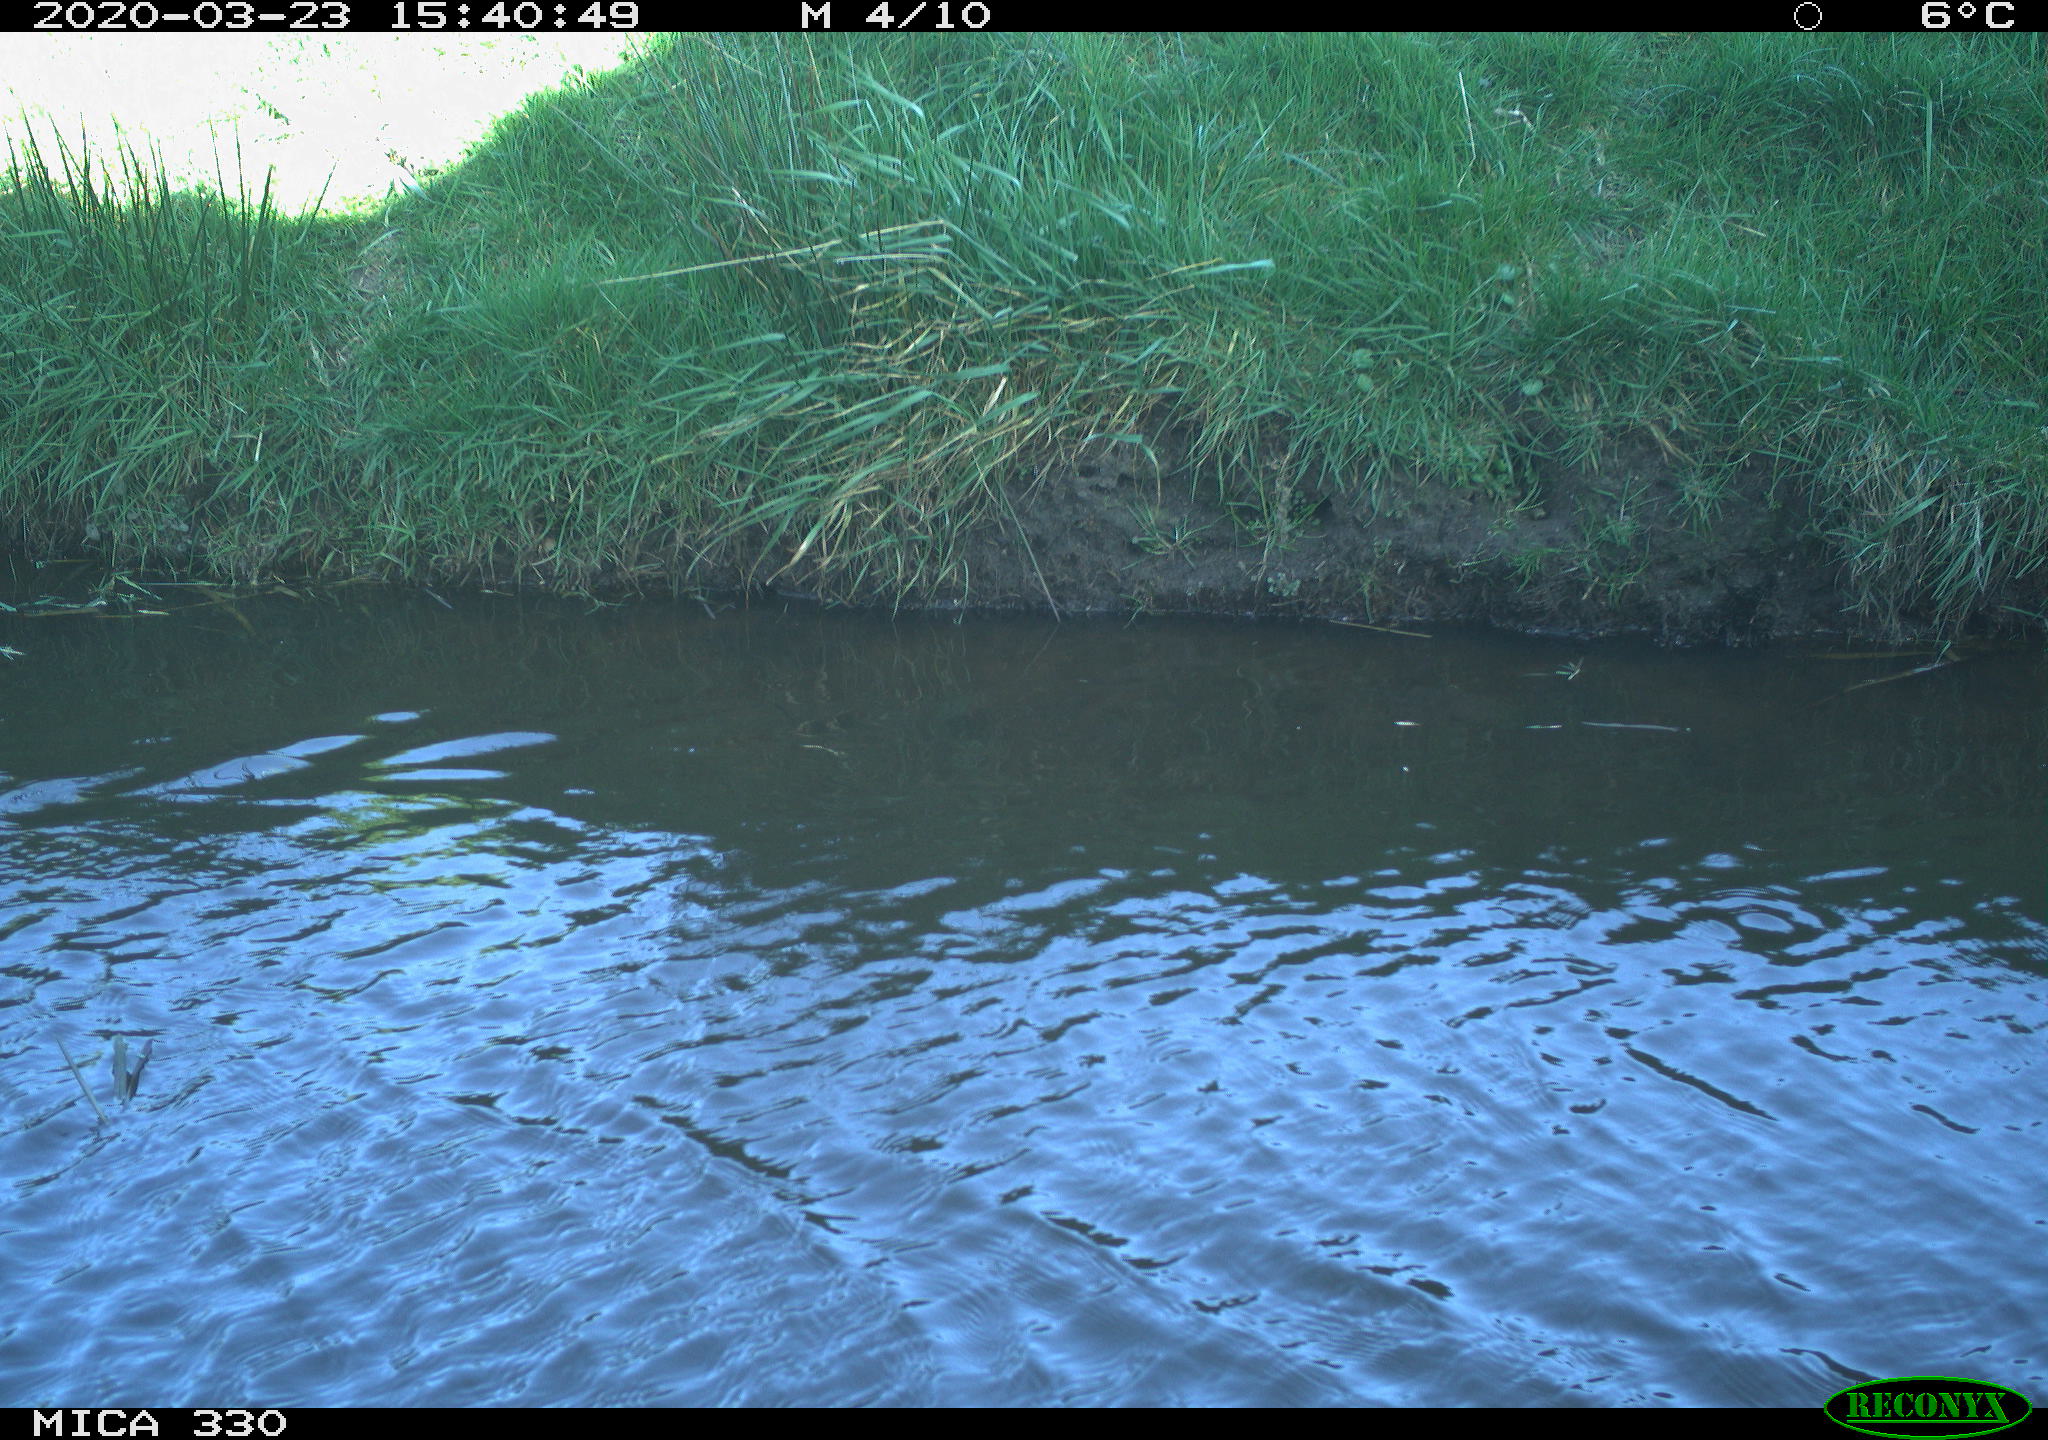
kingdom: Animalia
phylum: Chordata
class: Aves
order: Anseriformes
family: Anatidae
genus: Anas
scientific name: Anas platyrhynchos
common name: Mallard
